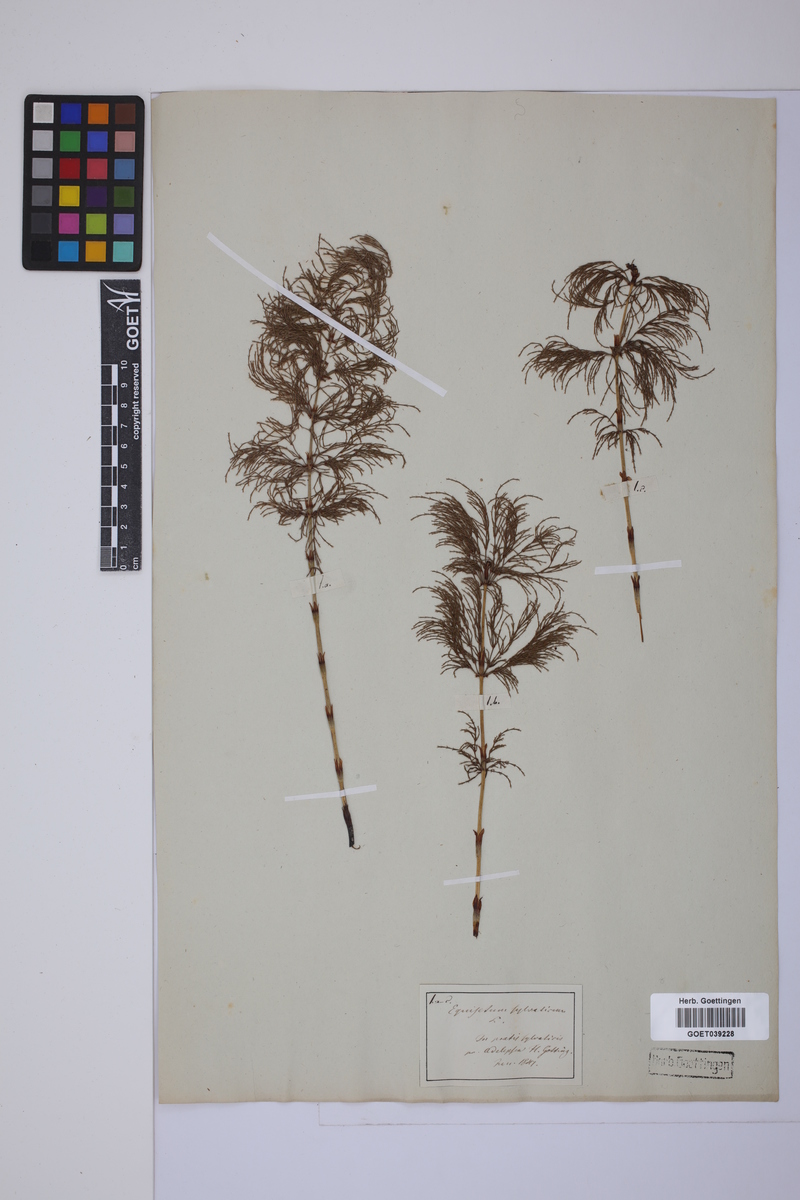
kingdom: Plantae
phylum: Tracheophyta
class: Polypodiopsida
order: Equisetales
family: Equisetaceae
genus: Equisetum
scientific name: Equisetum sylvaticum
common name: Wood horsetail
